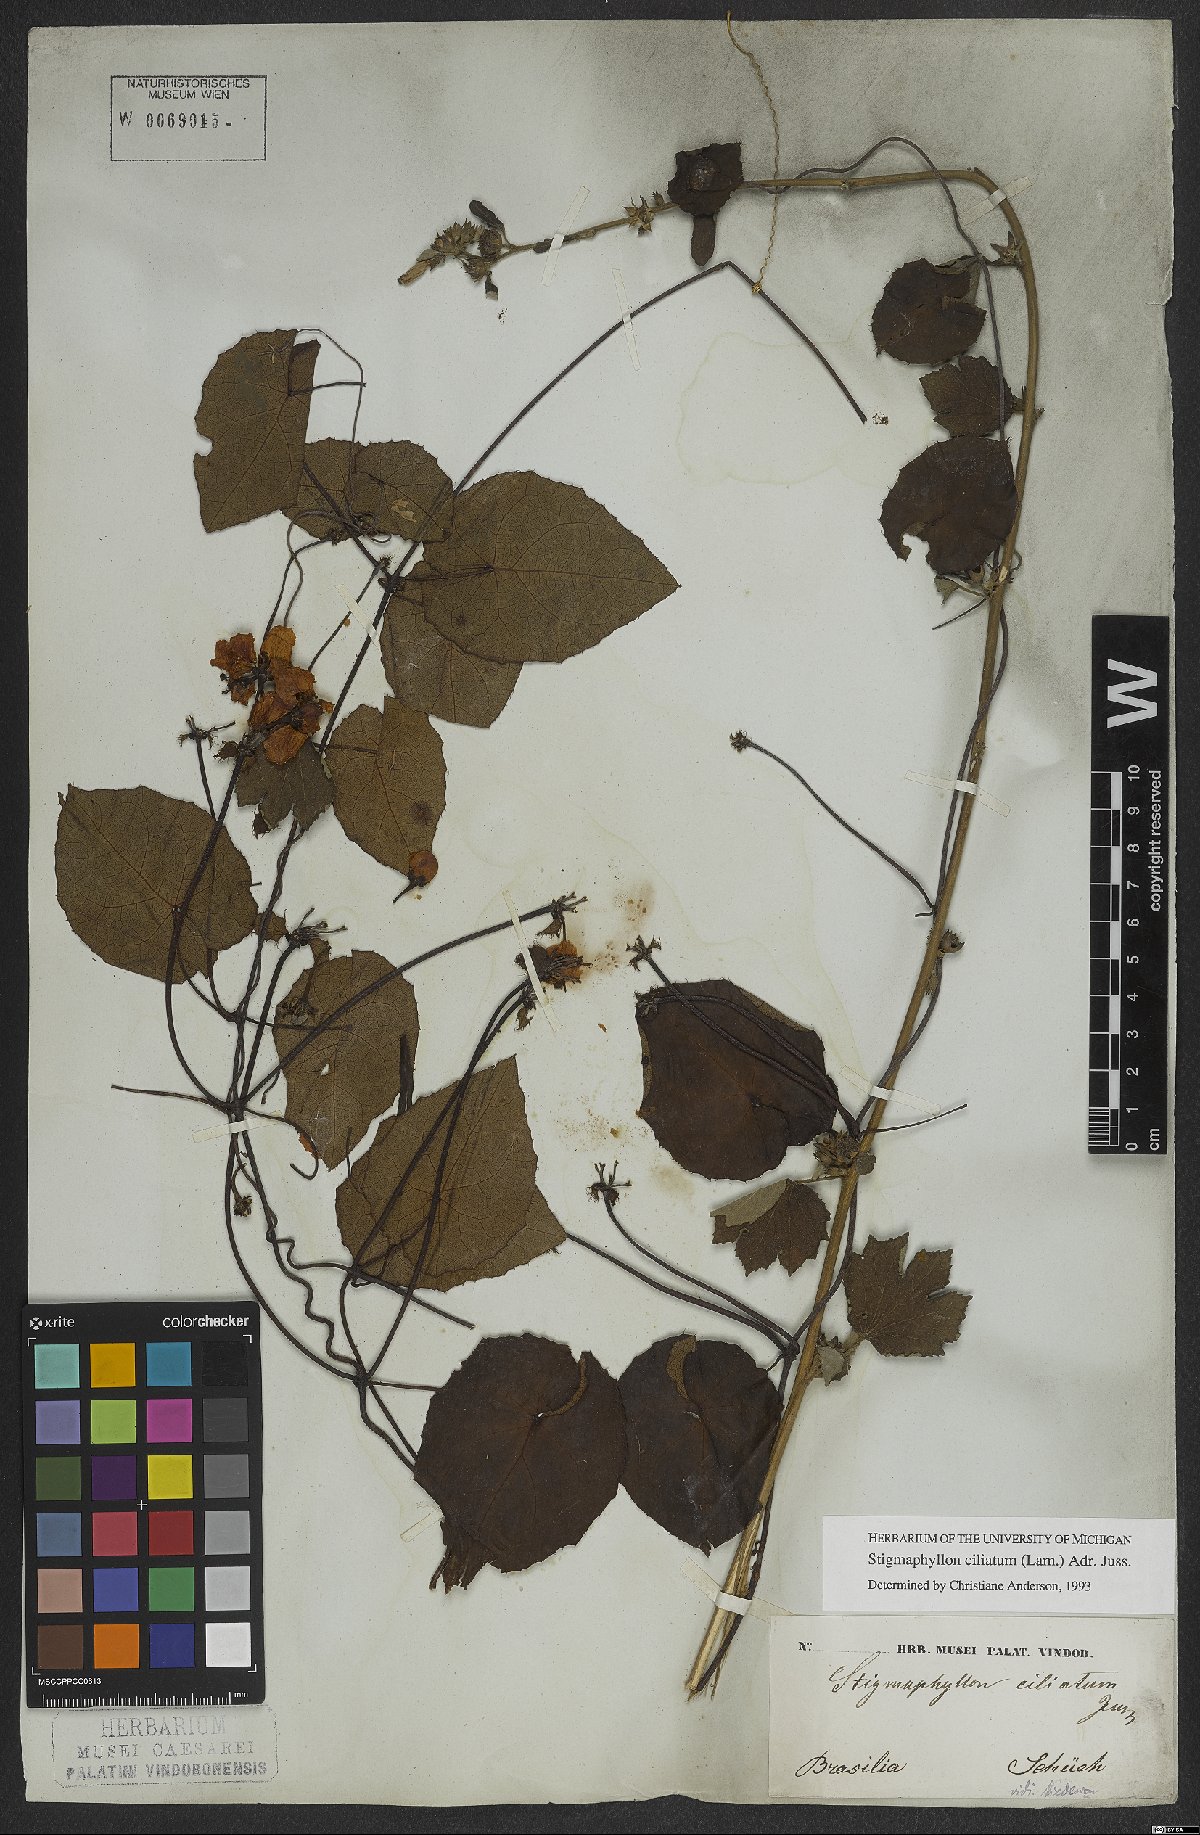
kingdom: Plantae
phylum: Tracheophyta
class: Magnoliopsida
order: Malpighiales
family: Malpighiaceae
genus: Stigmaphyllon
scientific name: Stigmaphyllon ciliatum
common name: Amazonvine
